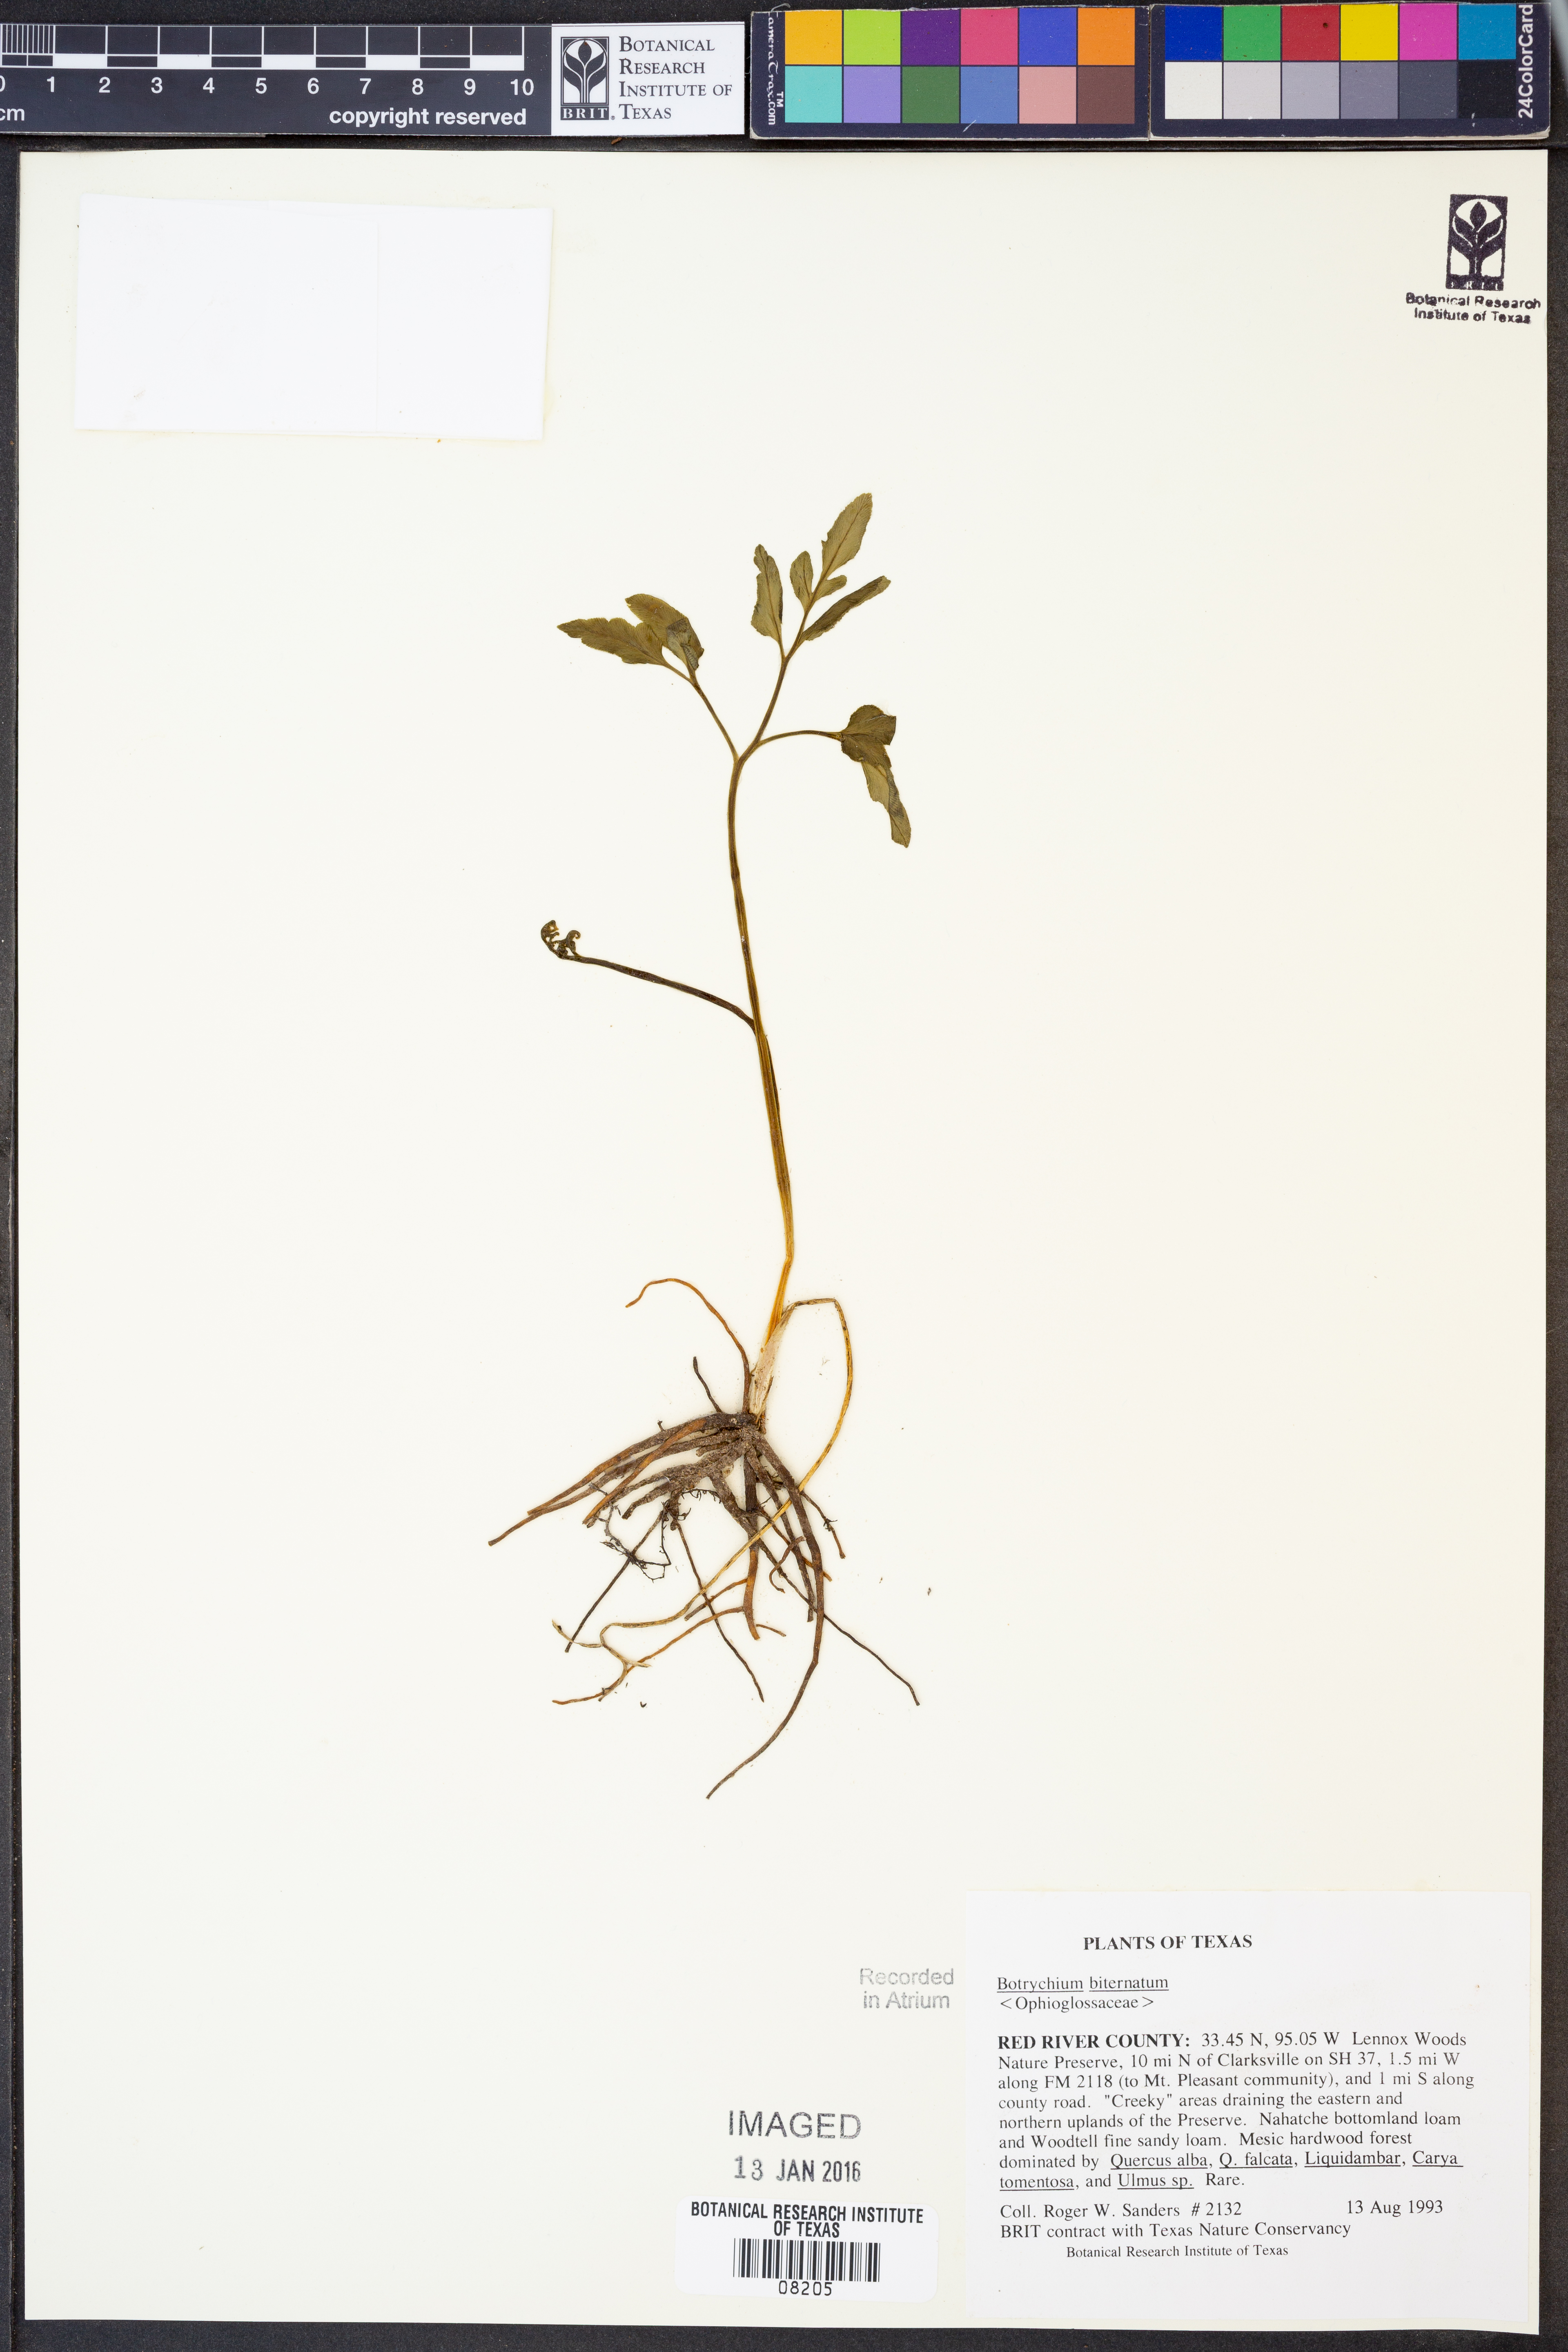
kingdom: Plantae
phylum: Tracheophyta
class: Polypodiopsida
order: Ophioglossales
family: Ophioglossaceae
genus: Sceptridium
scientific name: Sceptridium biternatum
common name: Sparse-lobed grapefern
